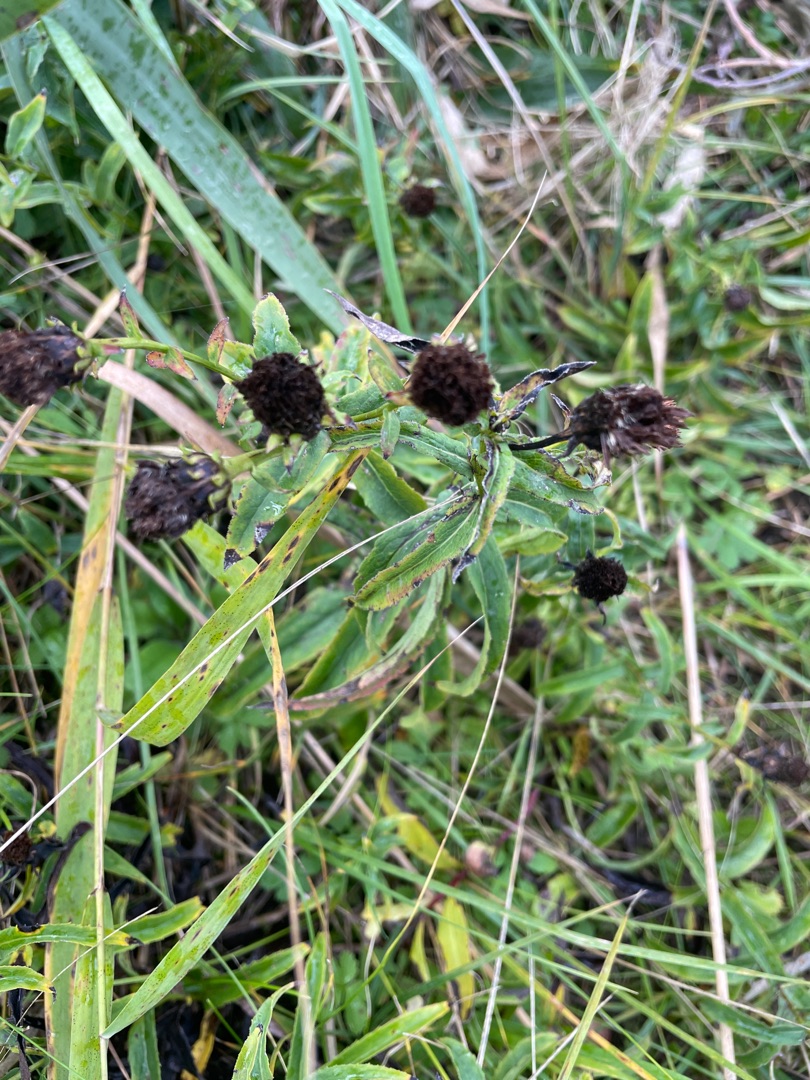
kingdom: Plantae
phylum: Tracheophyta
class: Magnoliopsida
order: Asterales
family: Asteraceae
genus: Pentanema
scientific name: Pentanema salicinum
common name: Pile-alant
